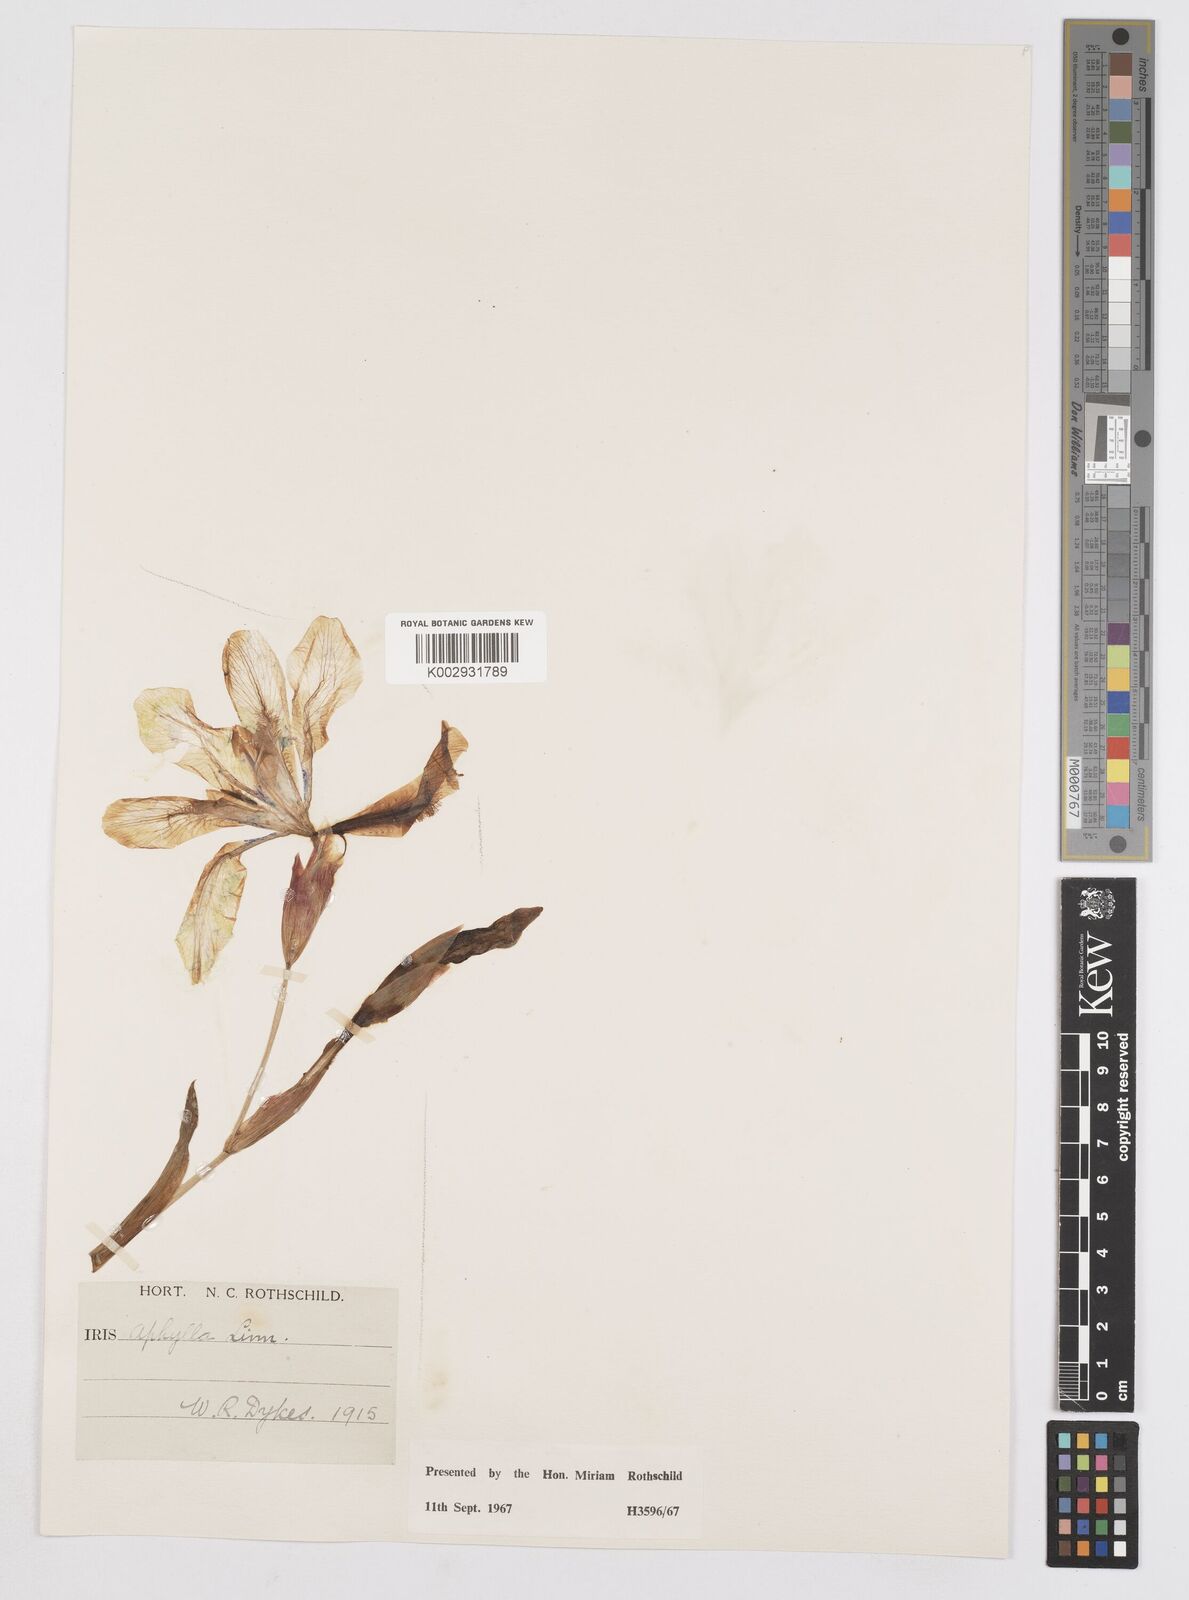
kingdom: Plantae
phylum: Tracheophyta
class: Liliopsida
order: Asparagales
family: Iridaceae
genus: Iris
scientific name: Iris aphylla
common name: Stool iris
